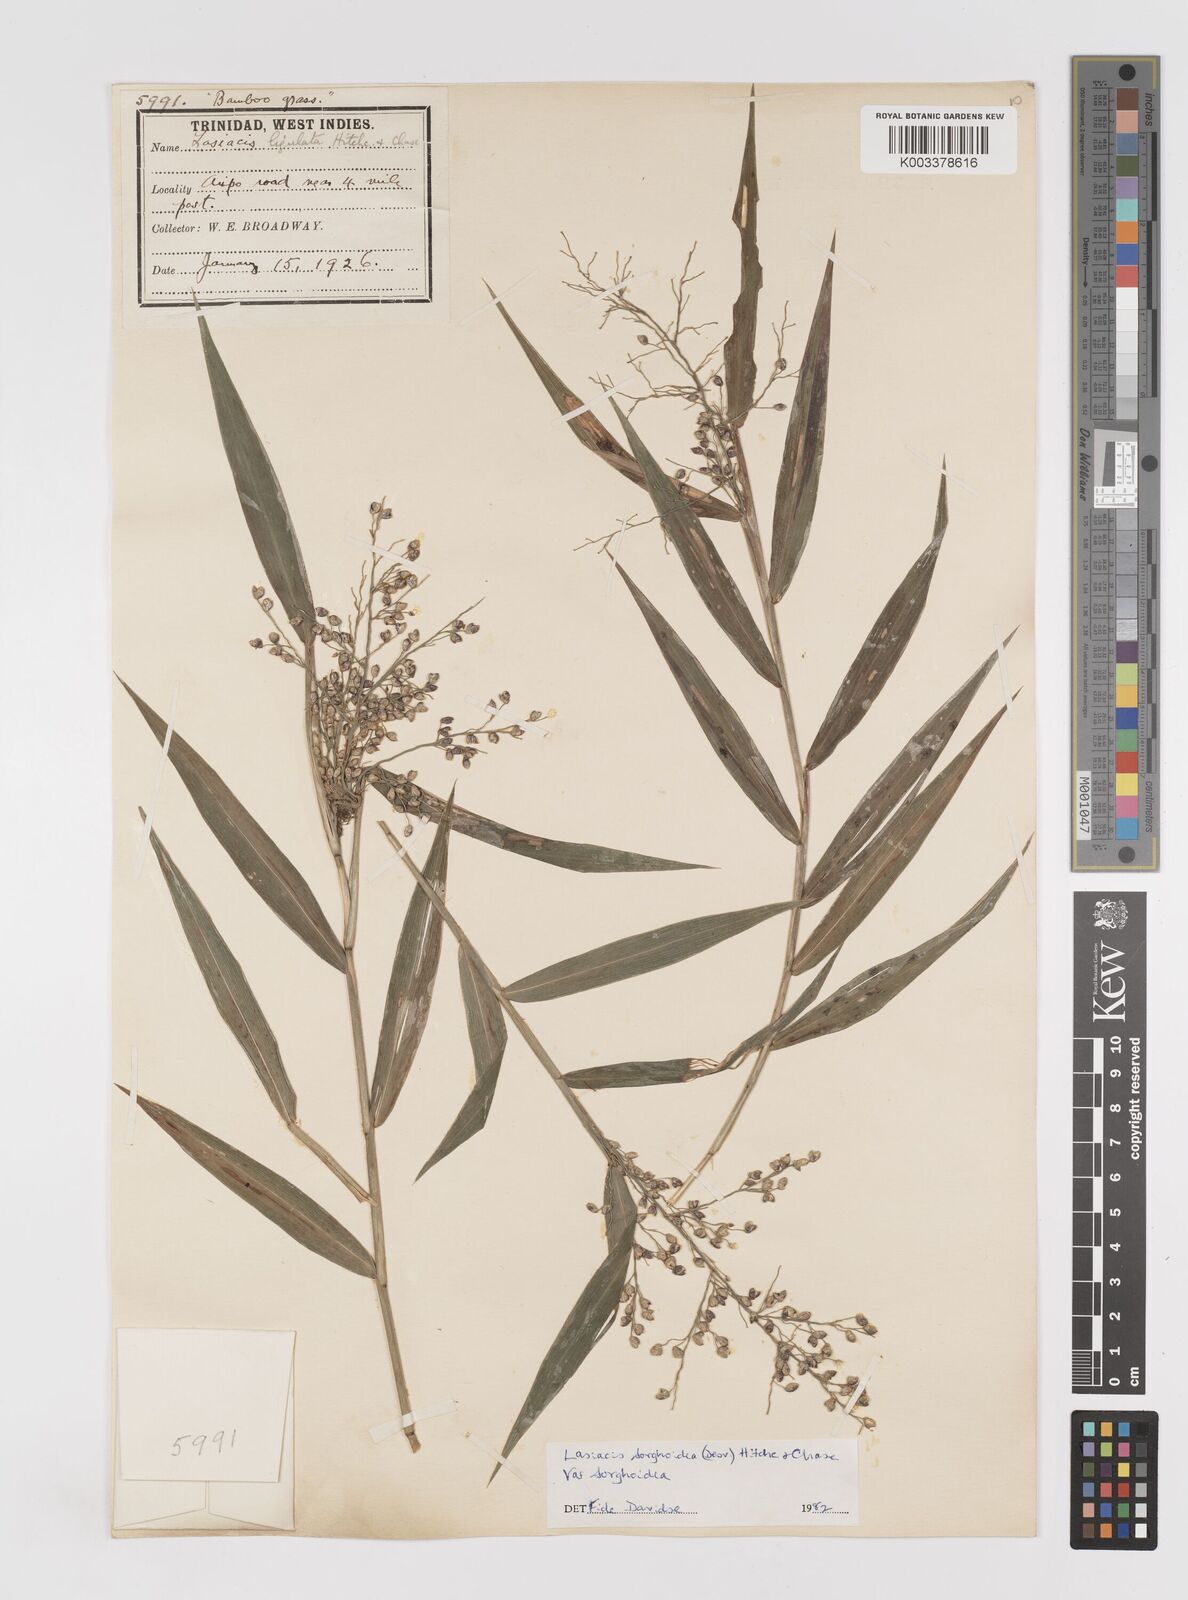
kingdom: Plantae
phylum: Tracheophyta
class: Liliopsida
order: Poales
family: Poaceae
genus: Lasiacis
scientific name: Lasiacis maculata
